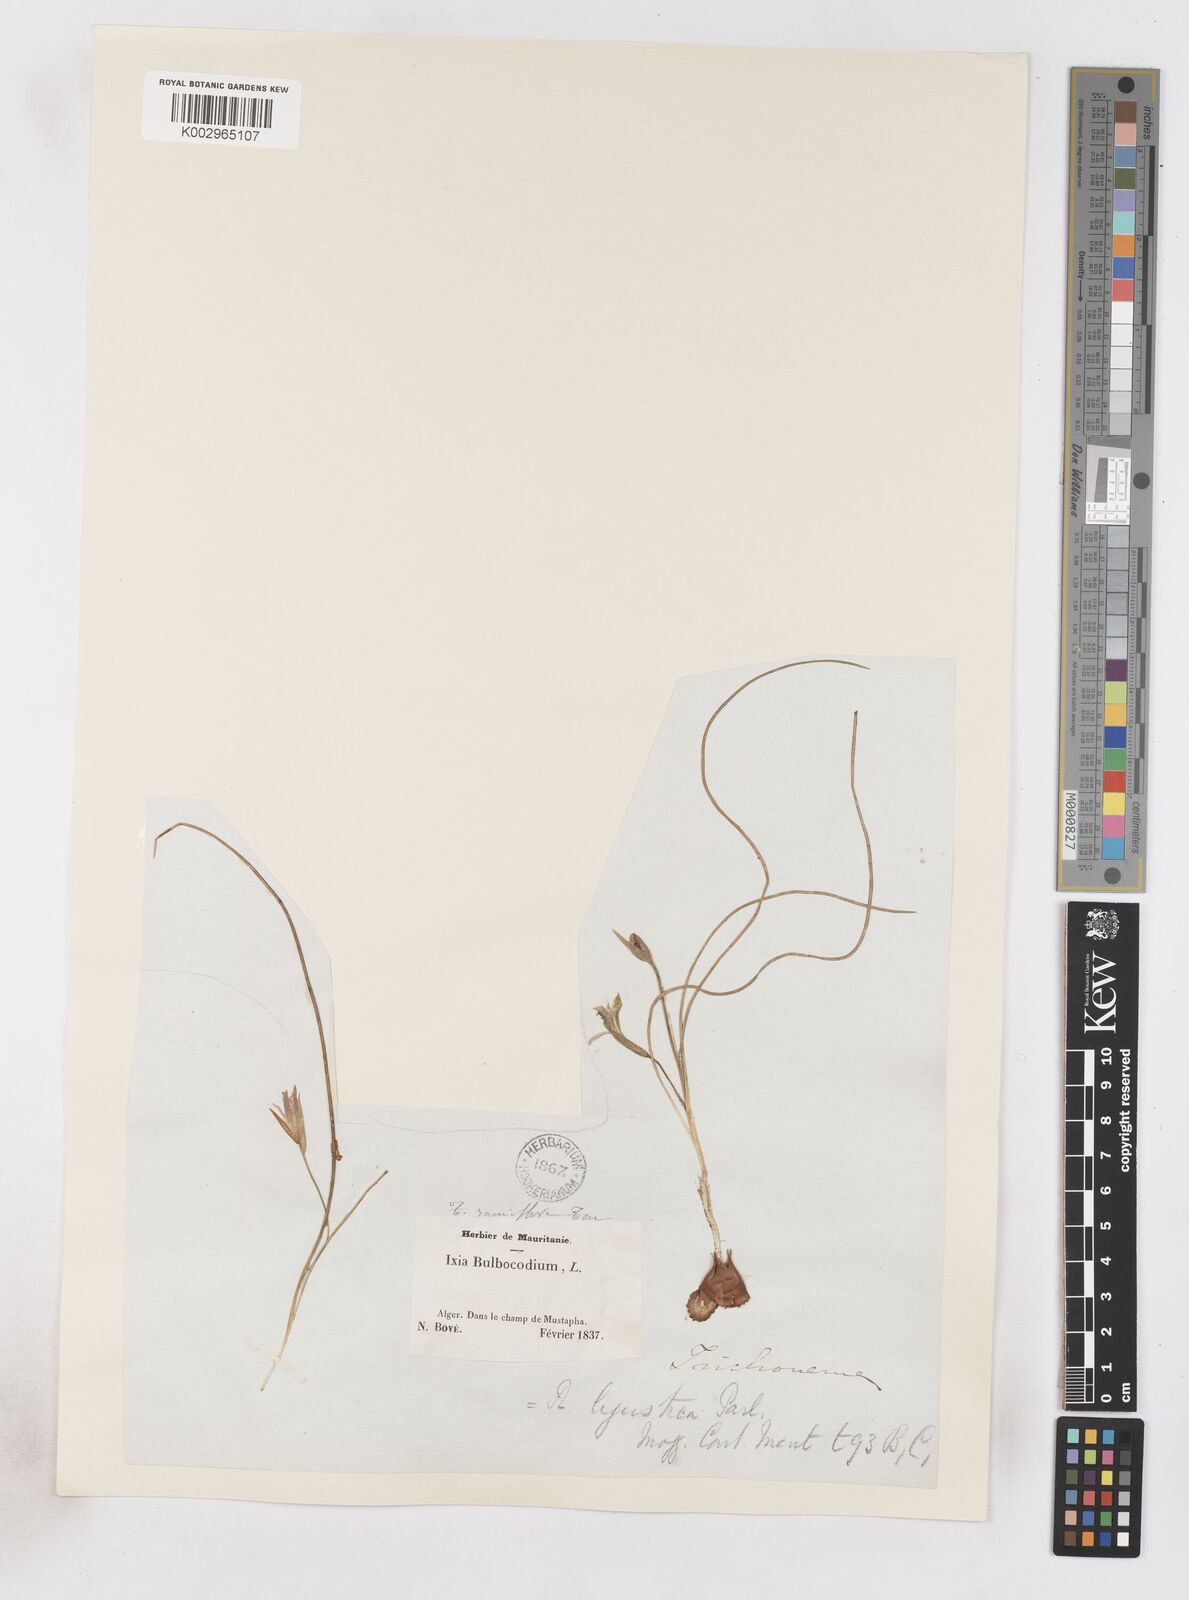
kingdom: Plantae
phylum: Tracheophyta
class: Liliopsida
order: Asparagales
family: Iridaceae
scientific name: Iridaceae
